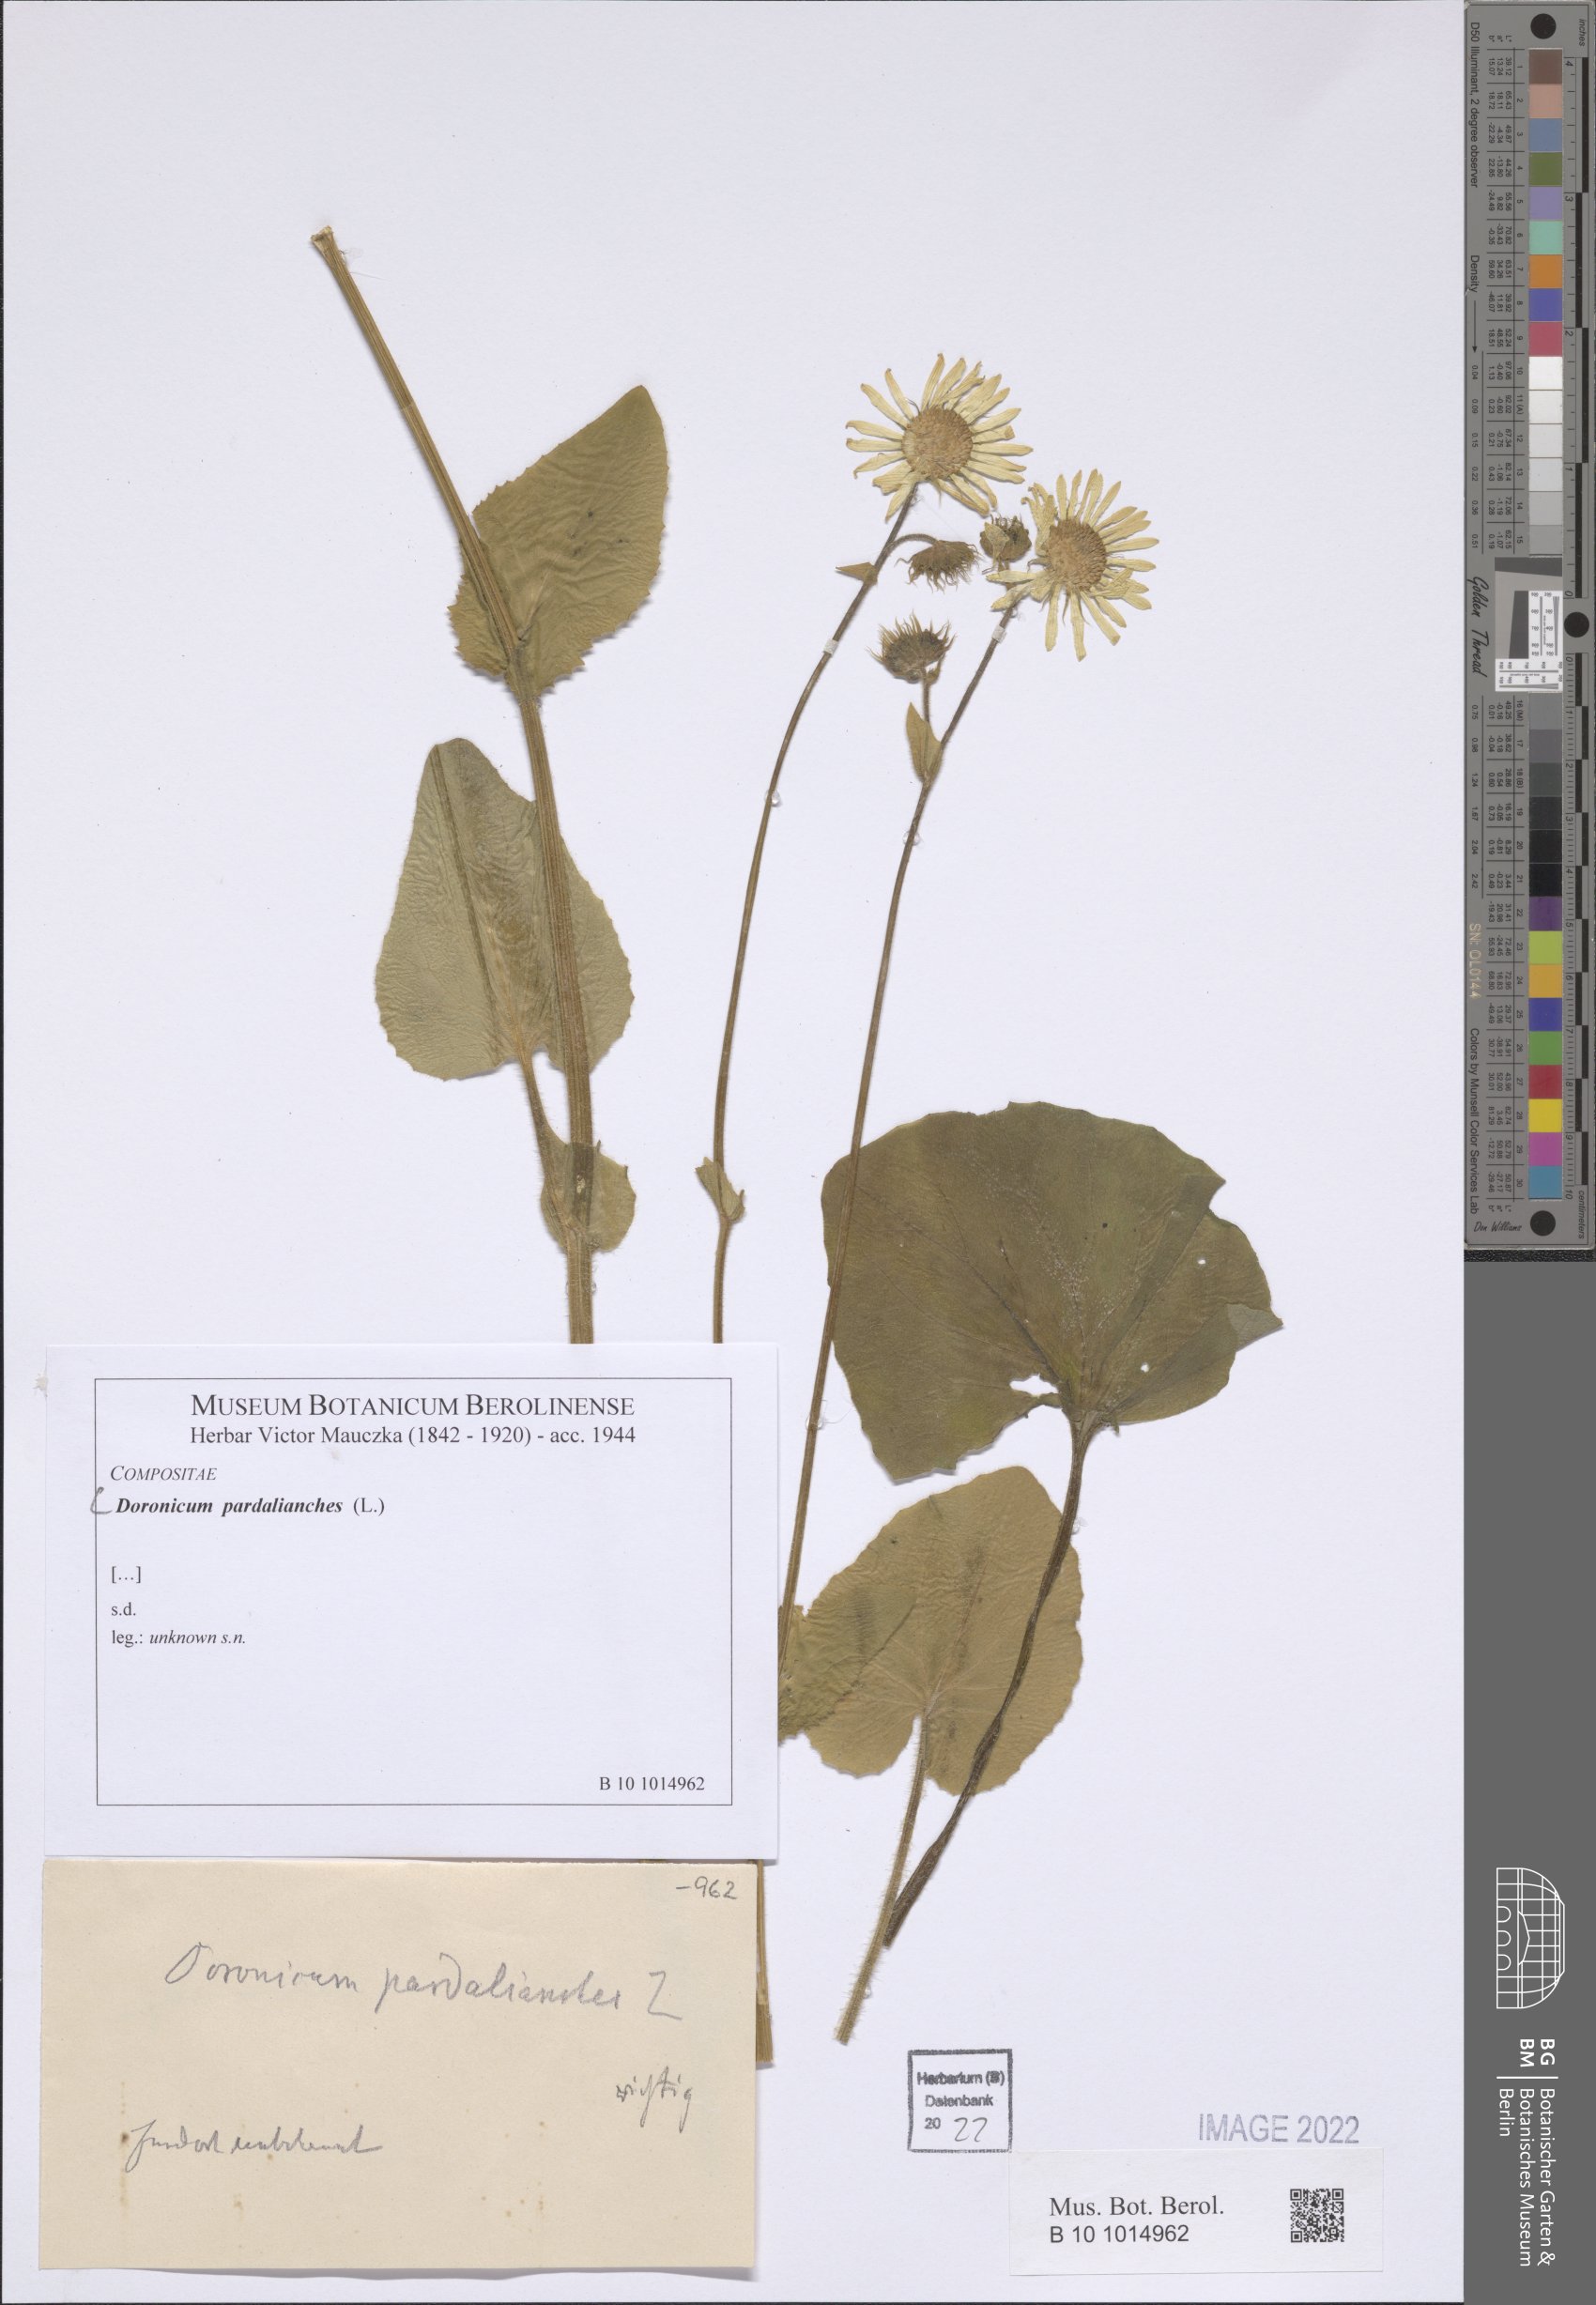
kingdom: Plantae
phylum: Tracheophyta
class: Magnoliopsida
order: Asterales
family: Asteraceae
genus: Doronicum
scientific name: Doronicum pardalianches
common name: Leopard's-bane
